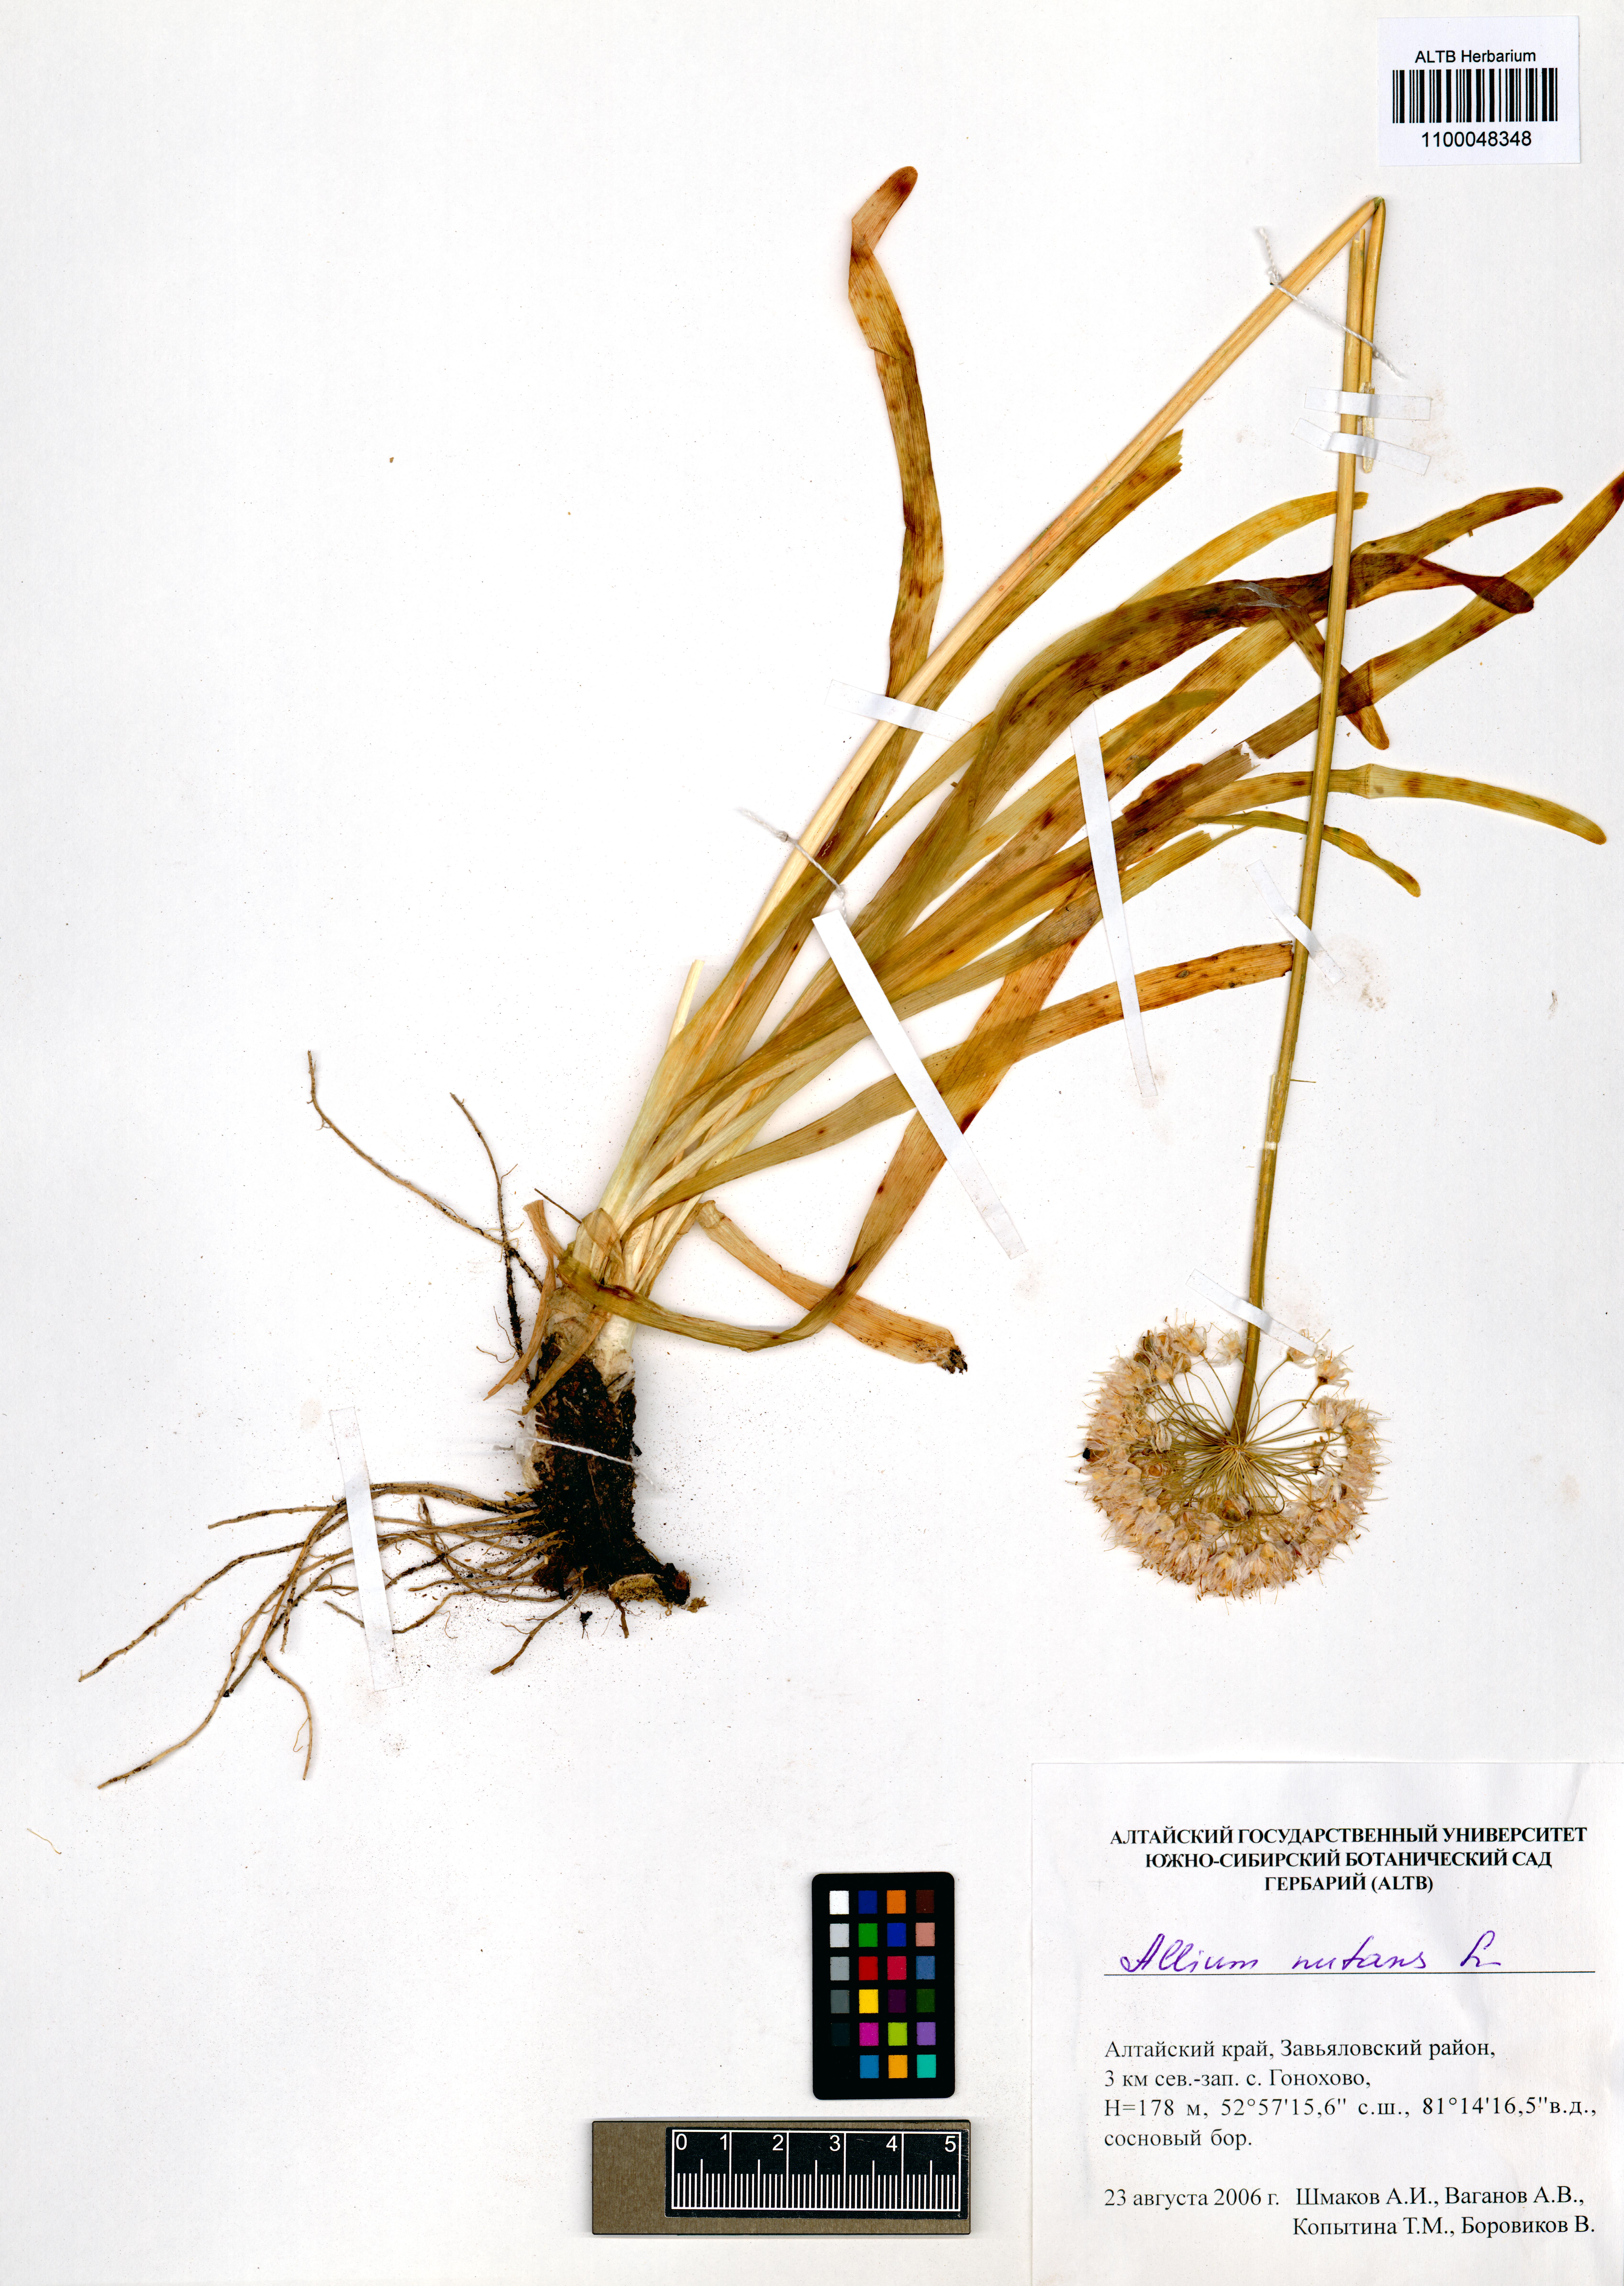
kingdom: Plantae
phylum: Tracheophyta
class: Liliopsida
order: Asparagales
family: Amaryllidaceae
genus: Allium
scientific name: Allium nutans
